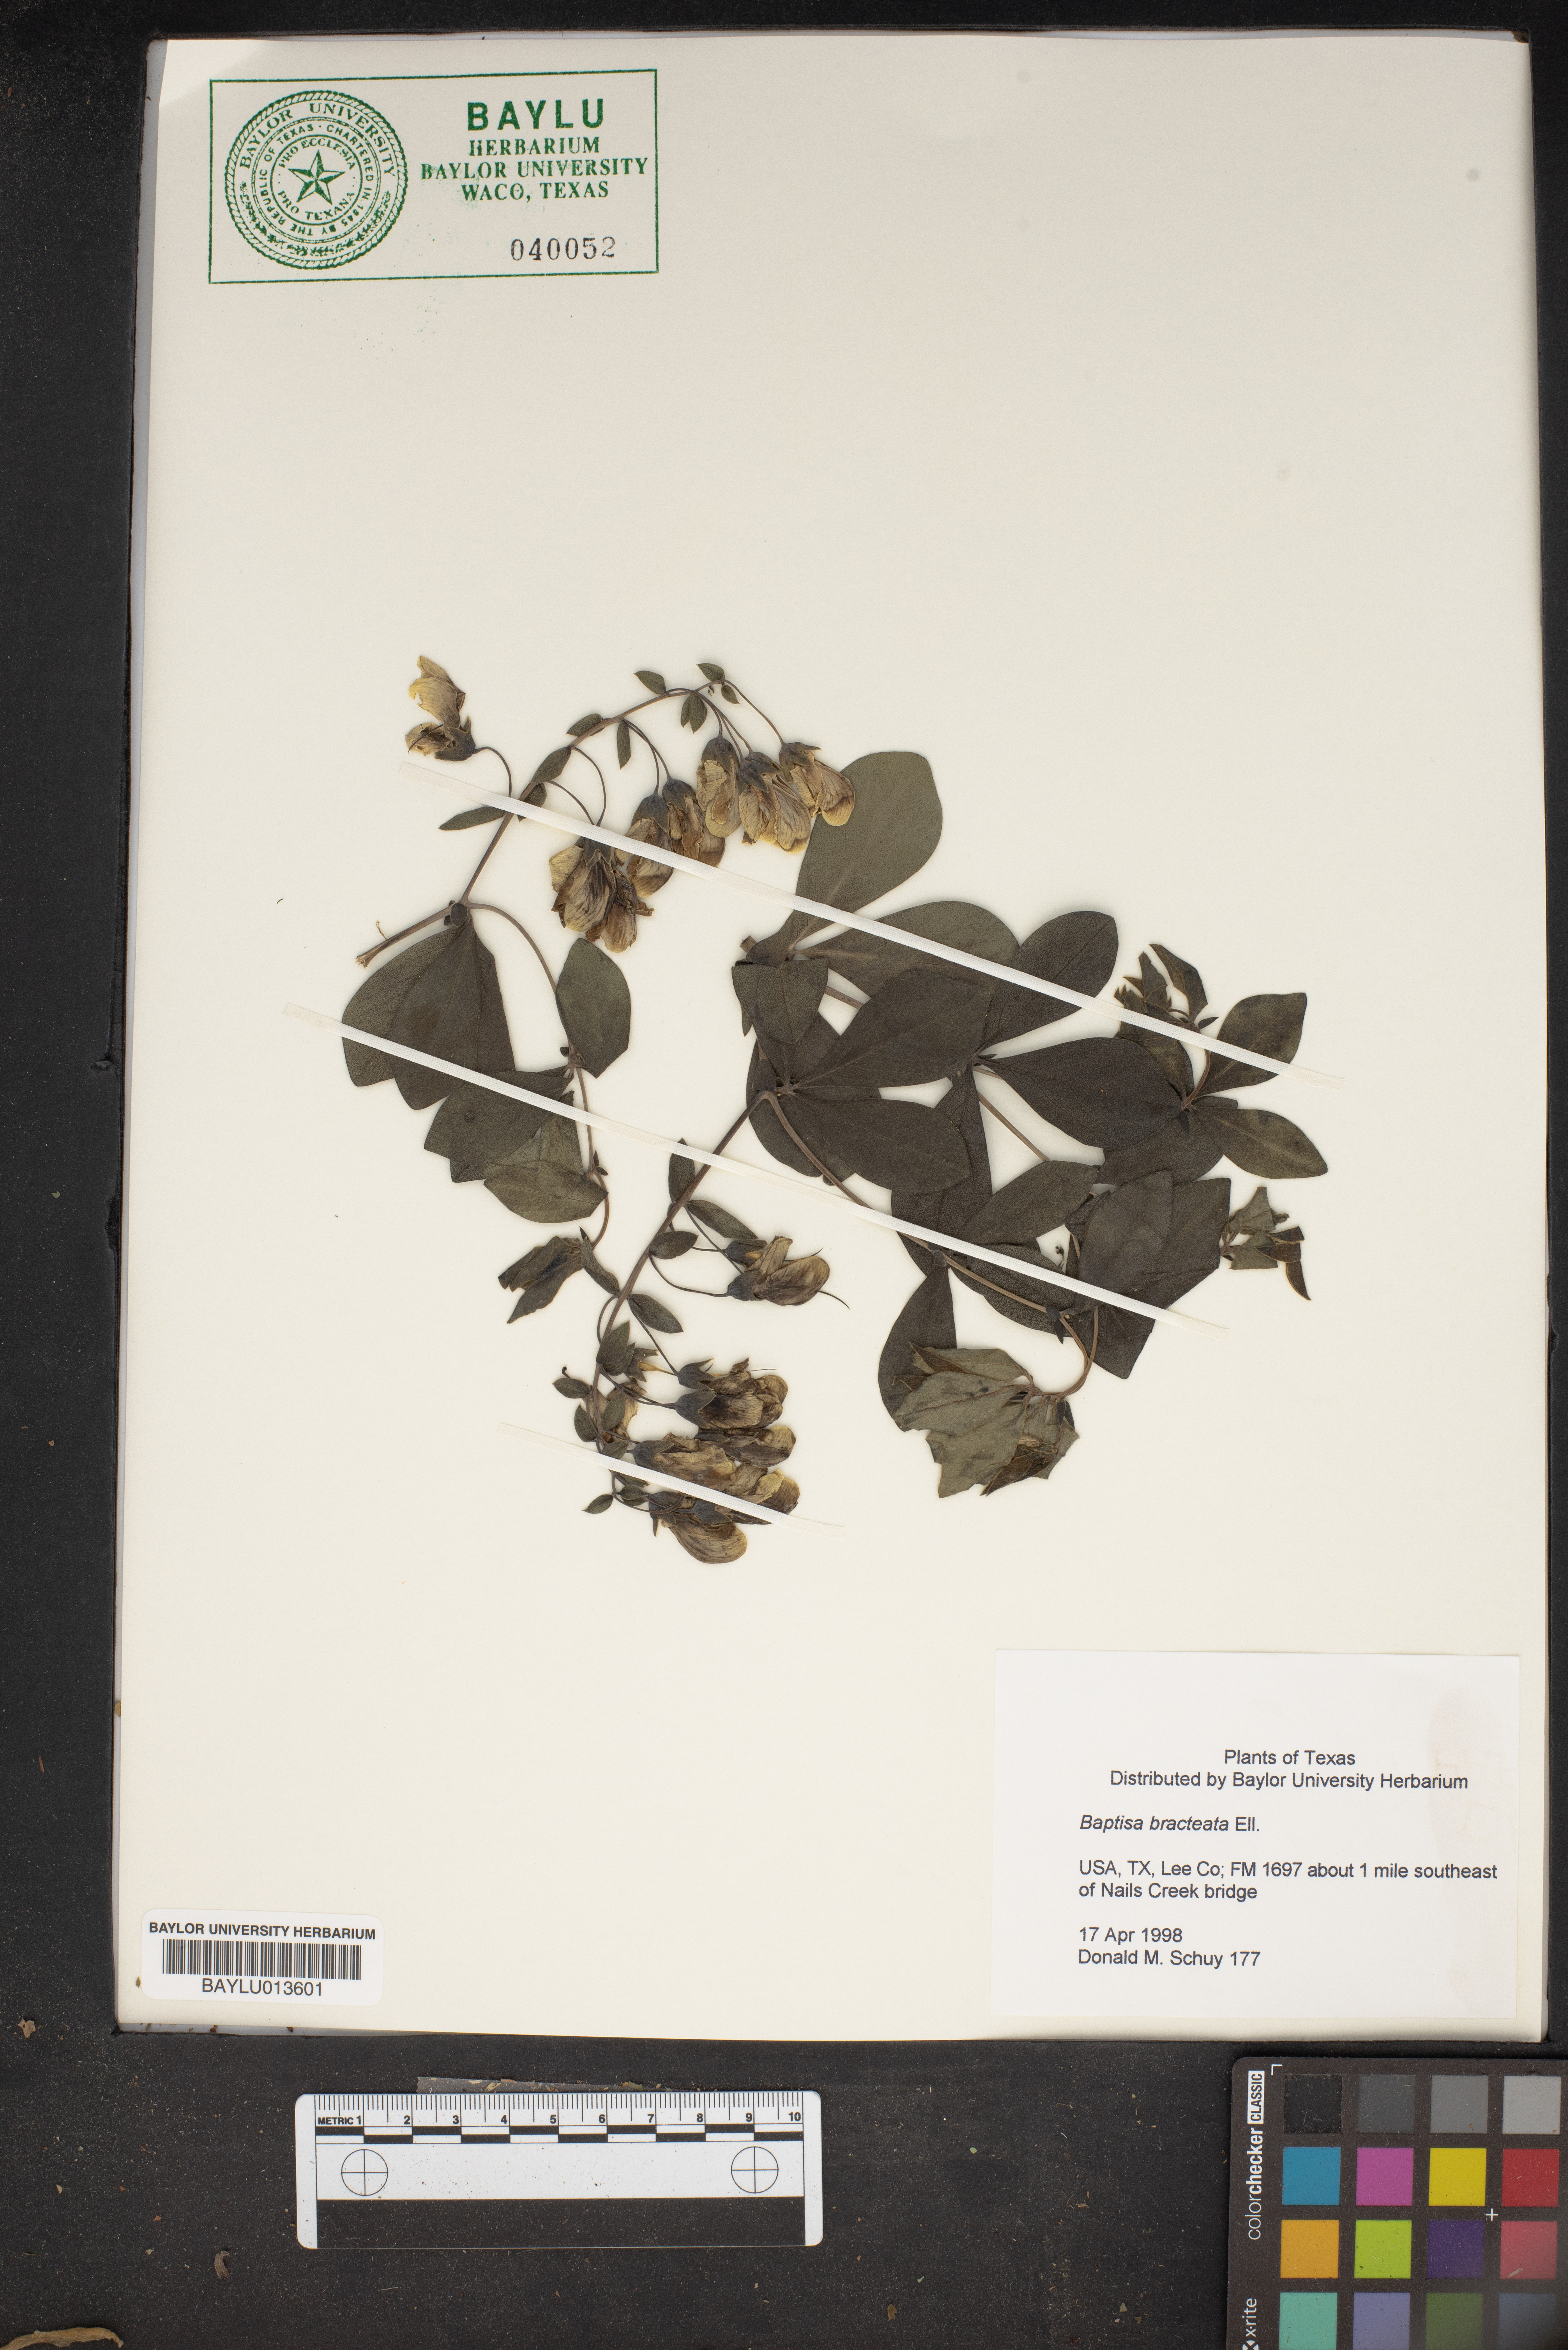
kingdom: Plantae
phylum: Tracheophyta
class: Magnoliopsida
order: Fabales
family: Fabaceae
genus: Baptisia
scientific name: Baptisia bracteata
